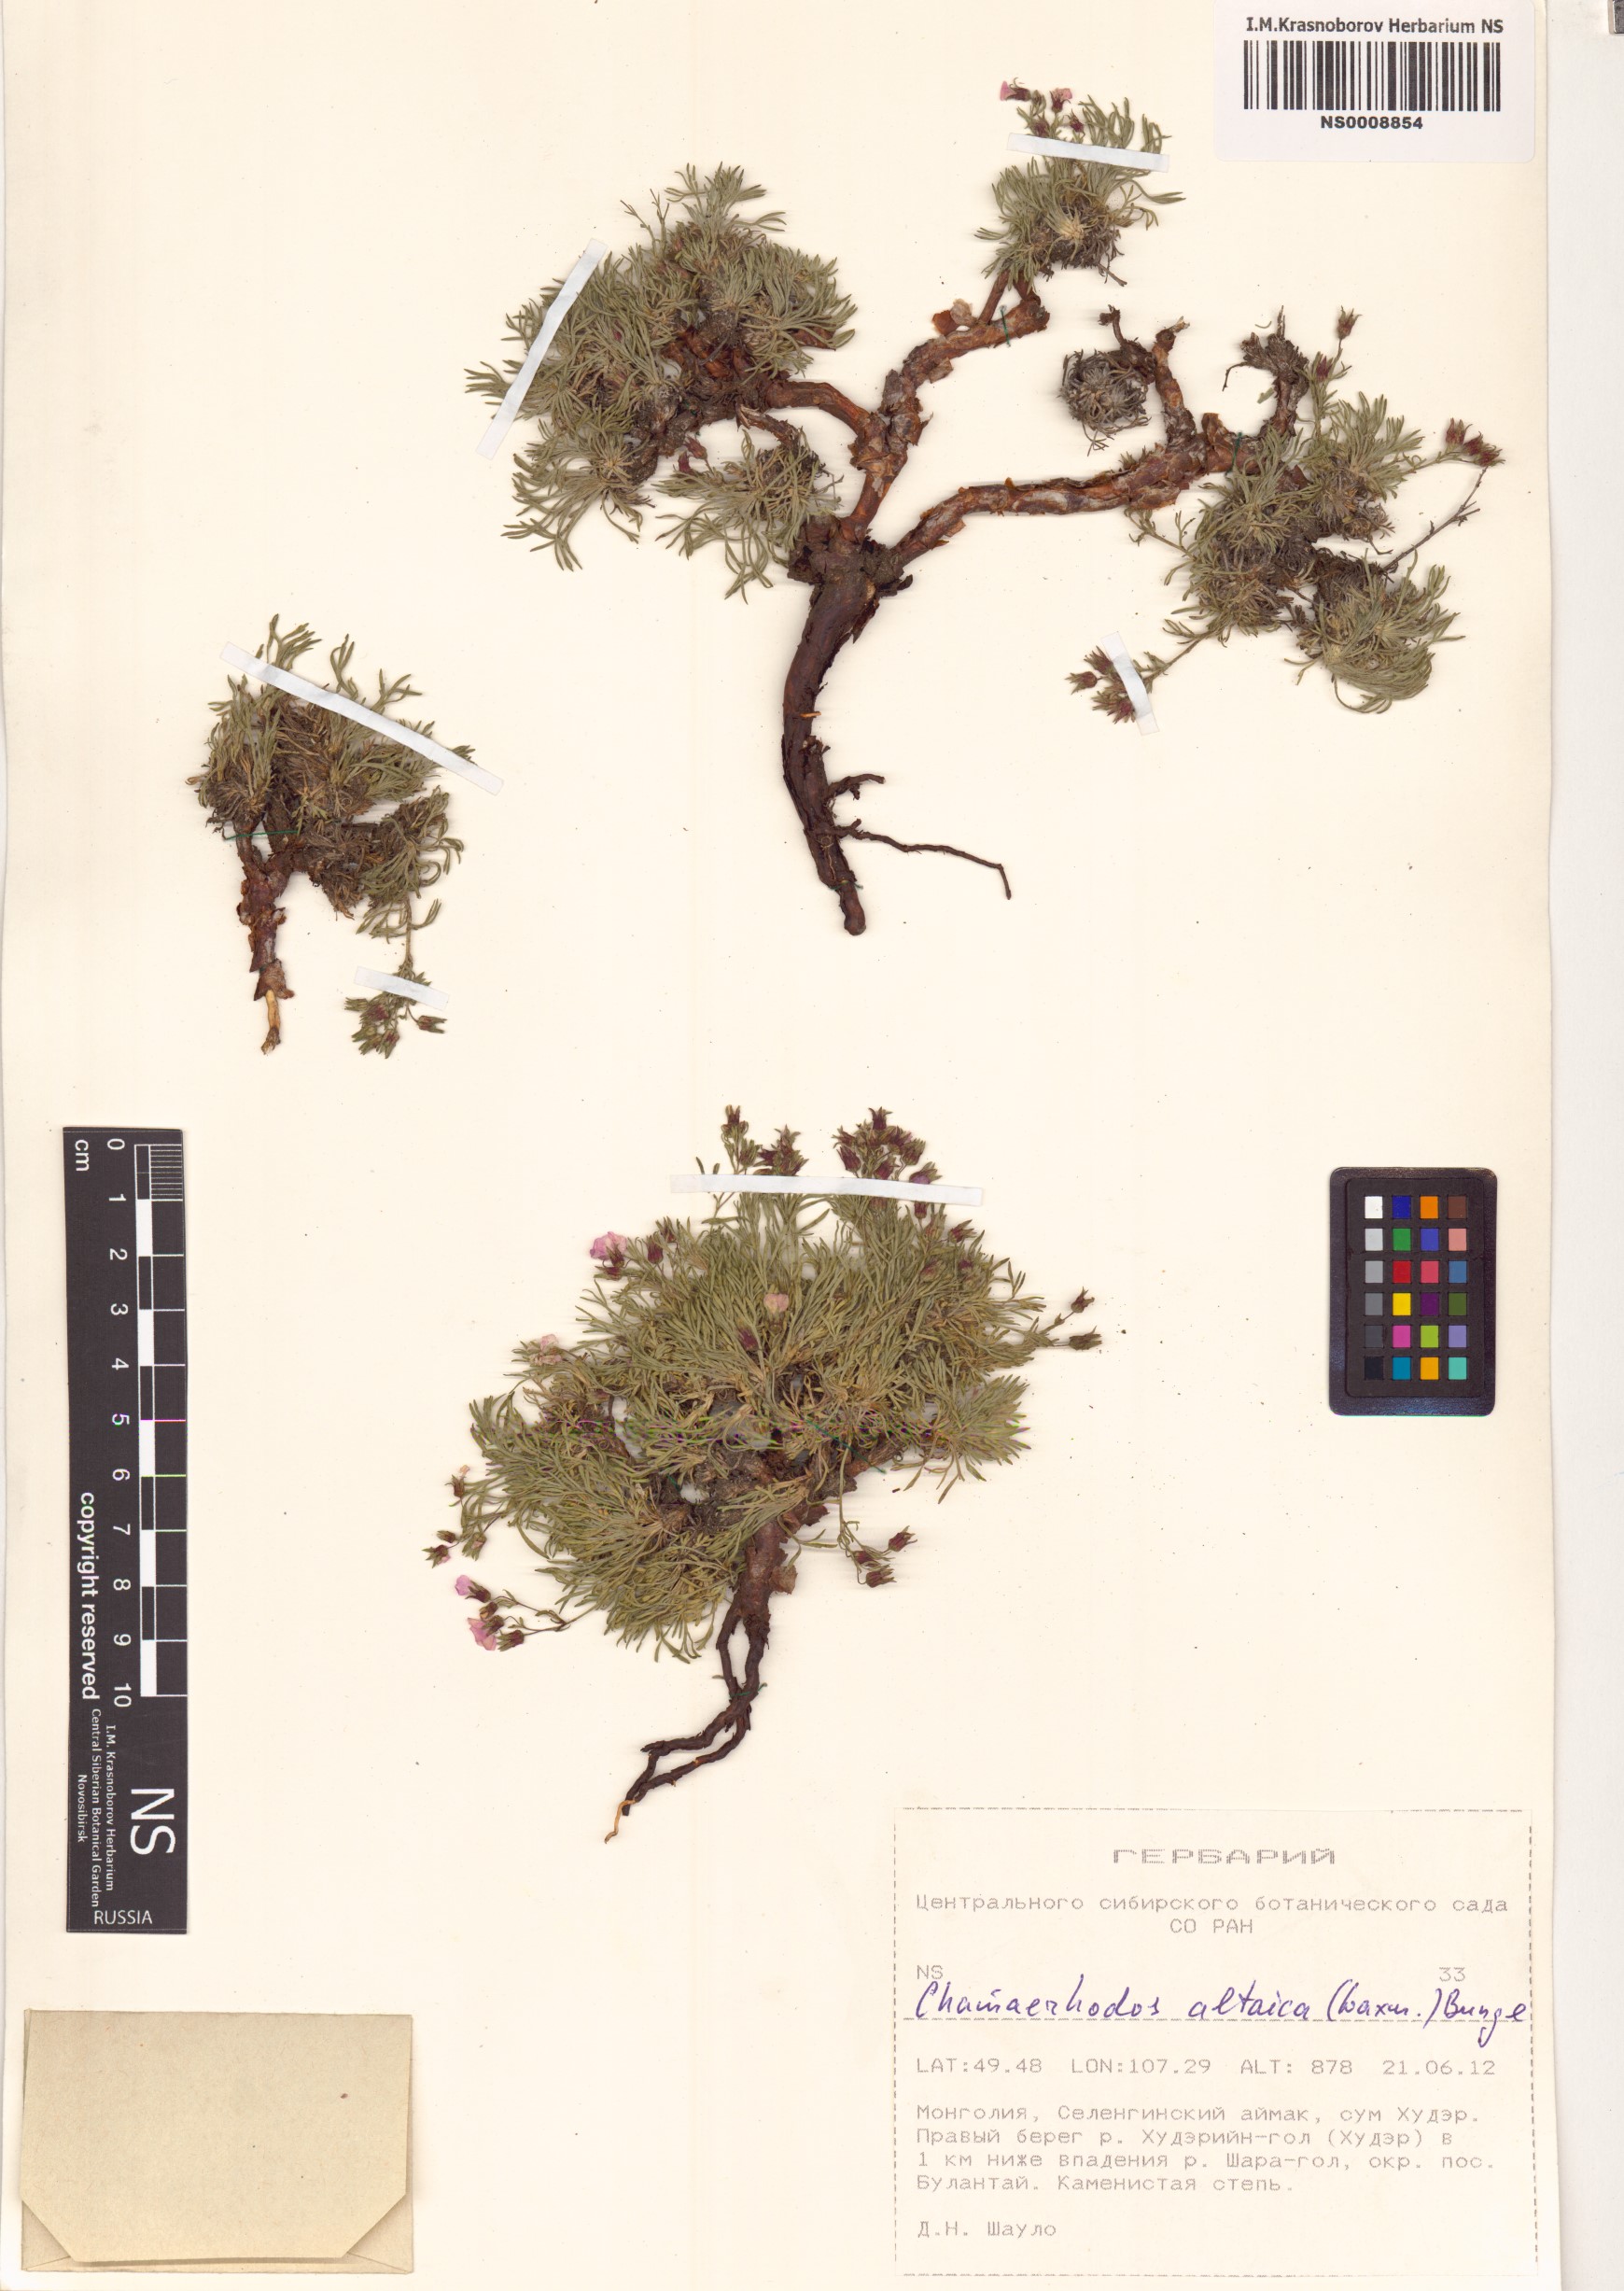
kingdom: Plantae
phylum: Tracheophyta
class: Magnoliopsida
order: Rosales
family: Rosaceae
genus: Chamaerhodos
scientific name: Chamaerhodos altaica
